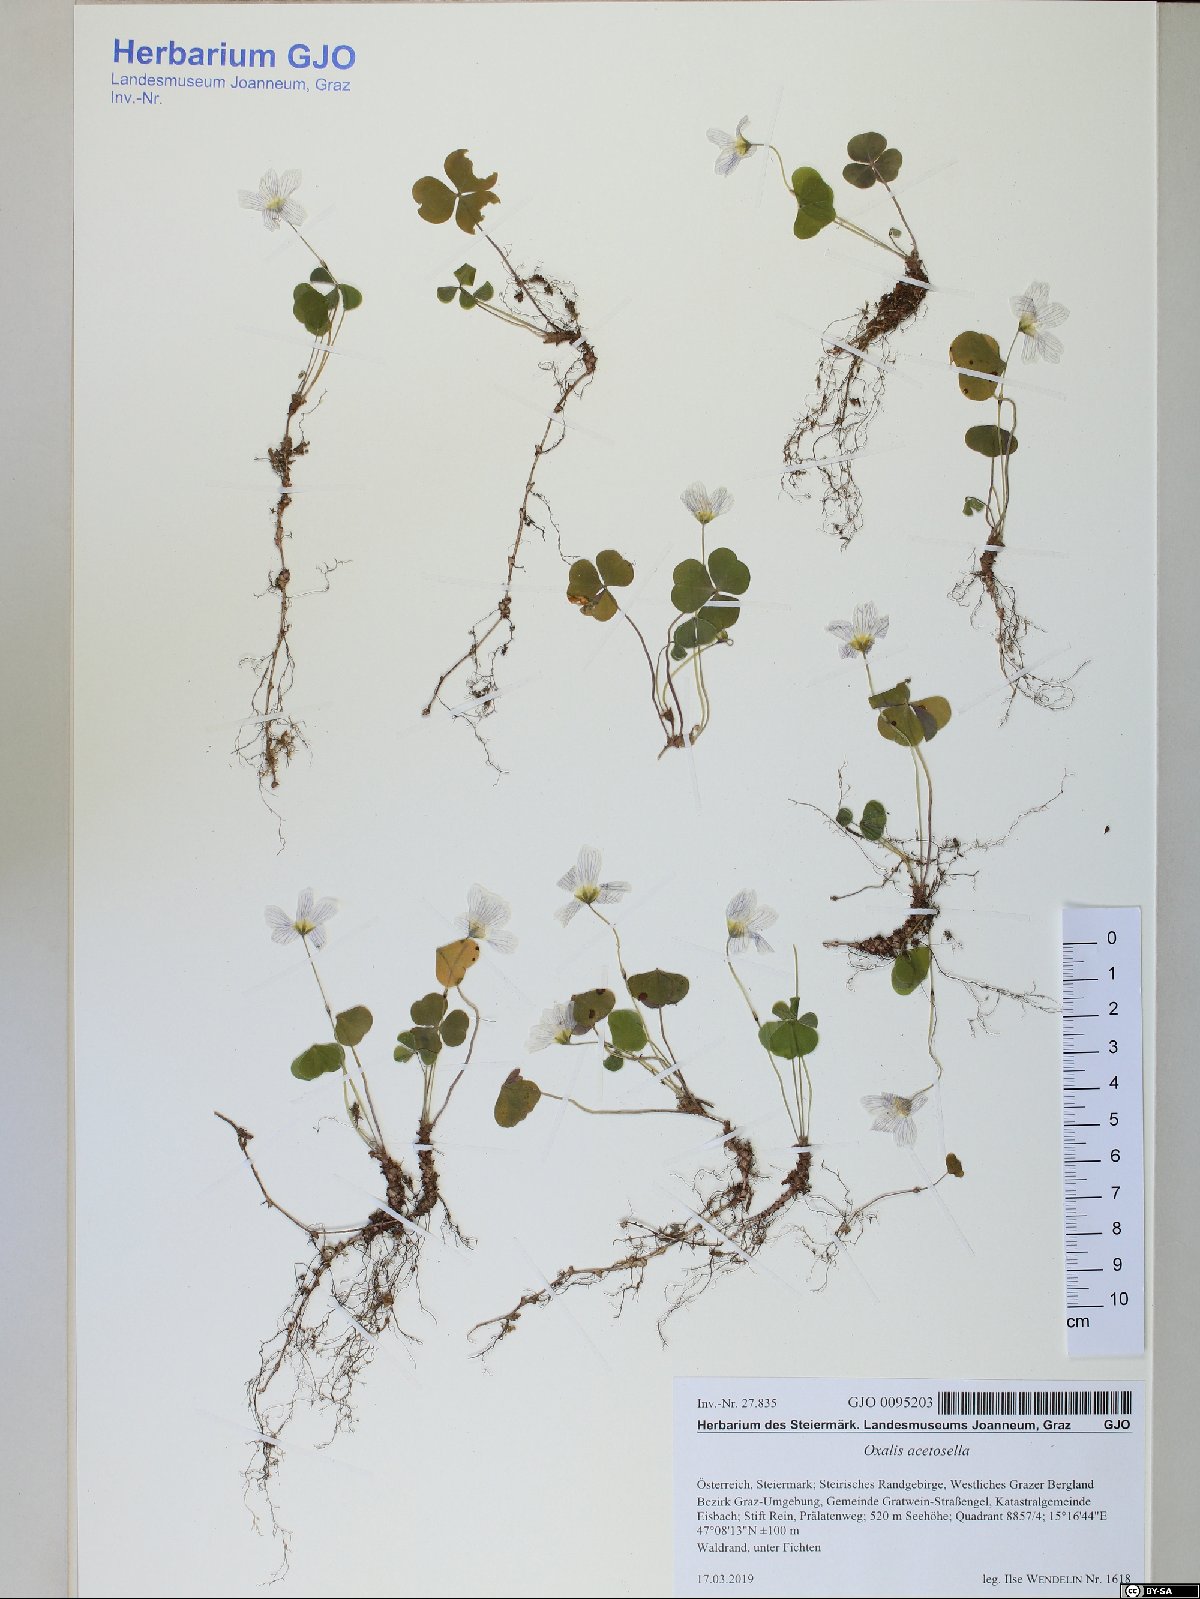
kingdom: Plantae
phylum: Tracheophyta
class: Magnoliopsida
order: Oxalidales
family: Oxalidaceae
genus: Oxalis
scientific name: Oxalis acetosella
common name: Wood-sorrel
